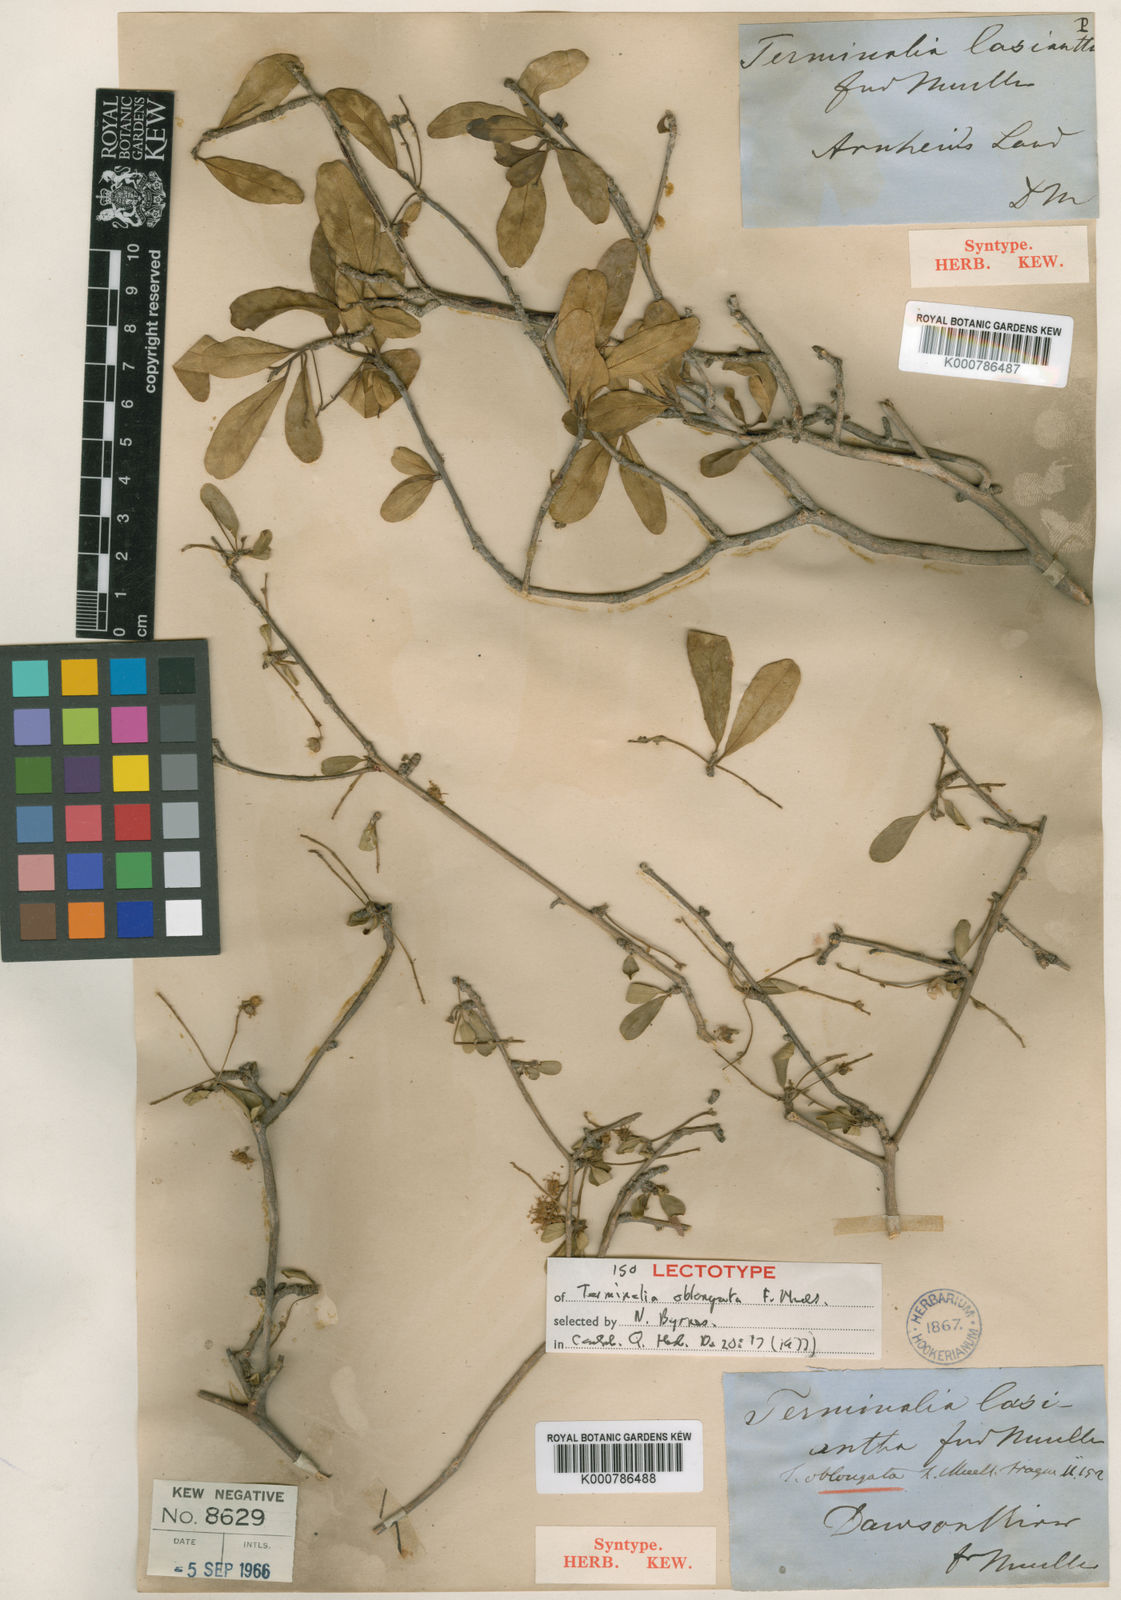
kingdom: Plantae
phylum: Tracheophyta
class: Magnoliopsida
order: Myrtales
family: Combretaceae
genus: Terminalia
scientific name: Terminalia oblongata
